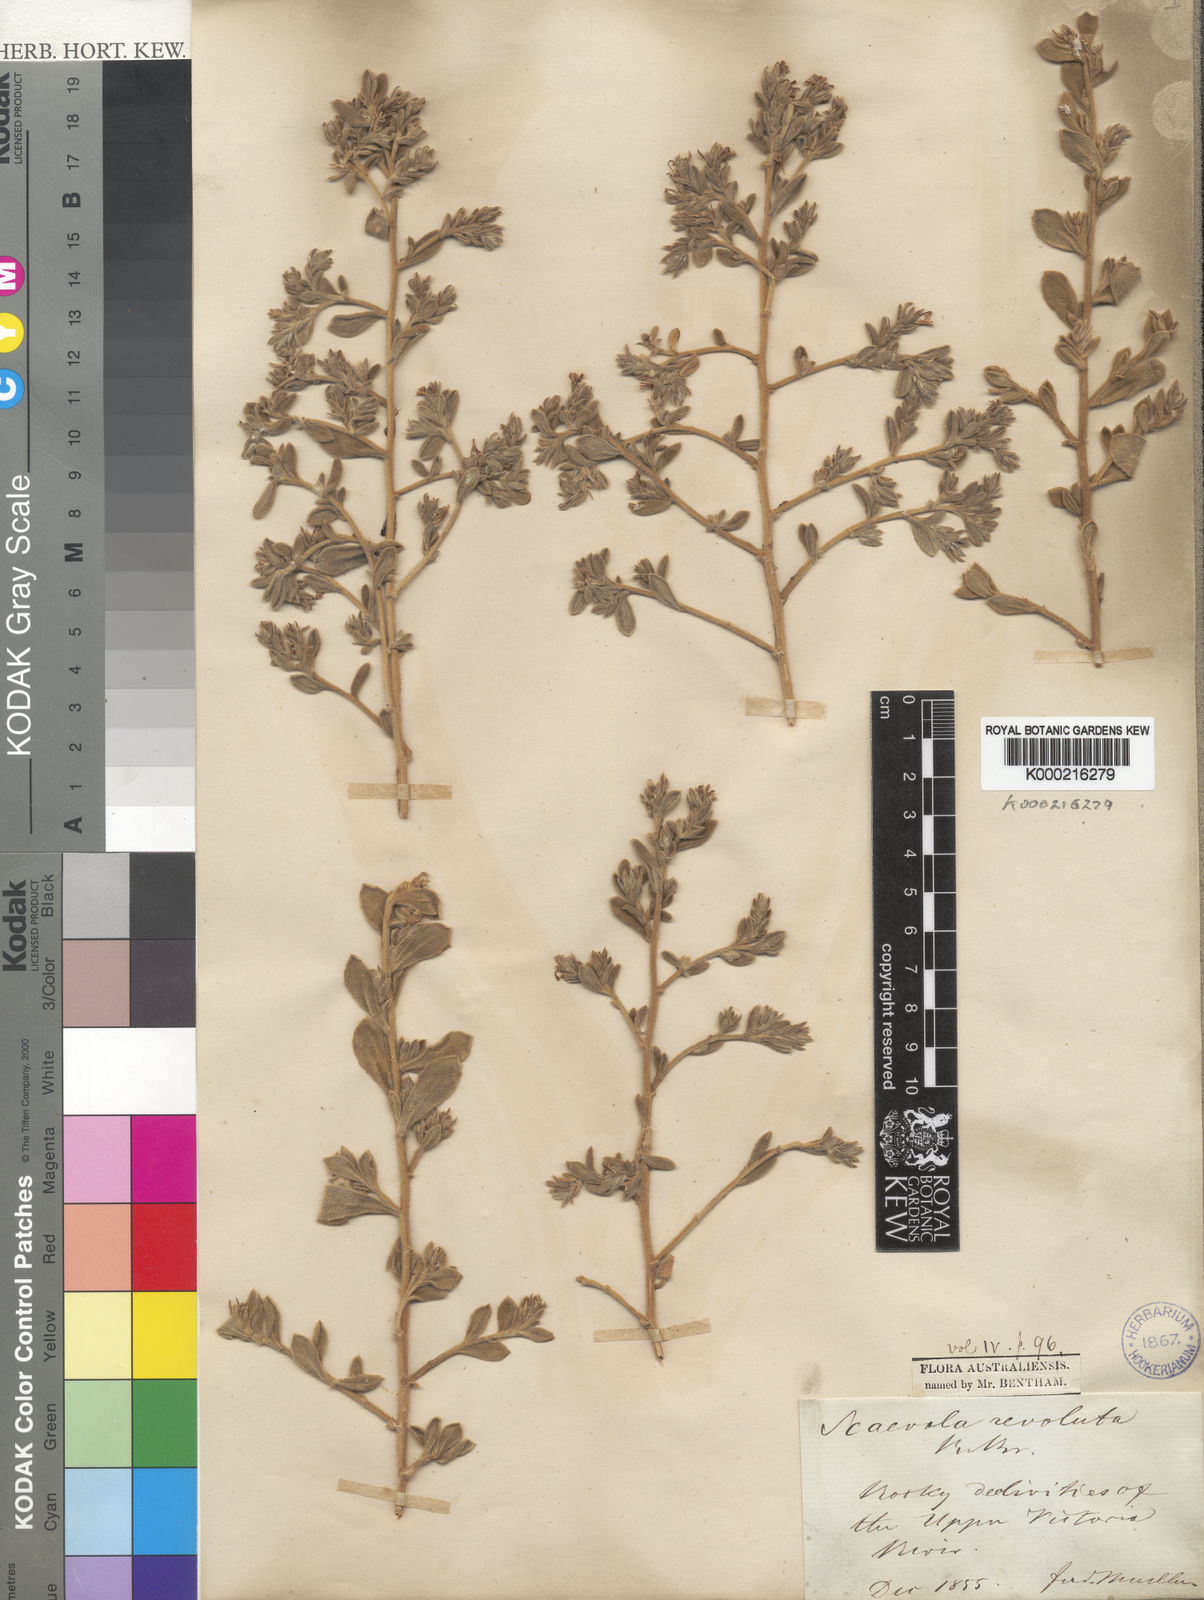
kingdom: Plantae
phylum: Tracheophyta
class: Magnoliopsida
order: Asterales
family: Goodeniaceae
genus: Scaevola
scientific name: Scaevola revoluta
